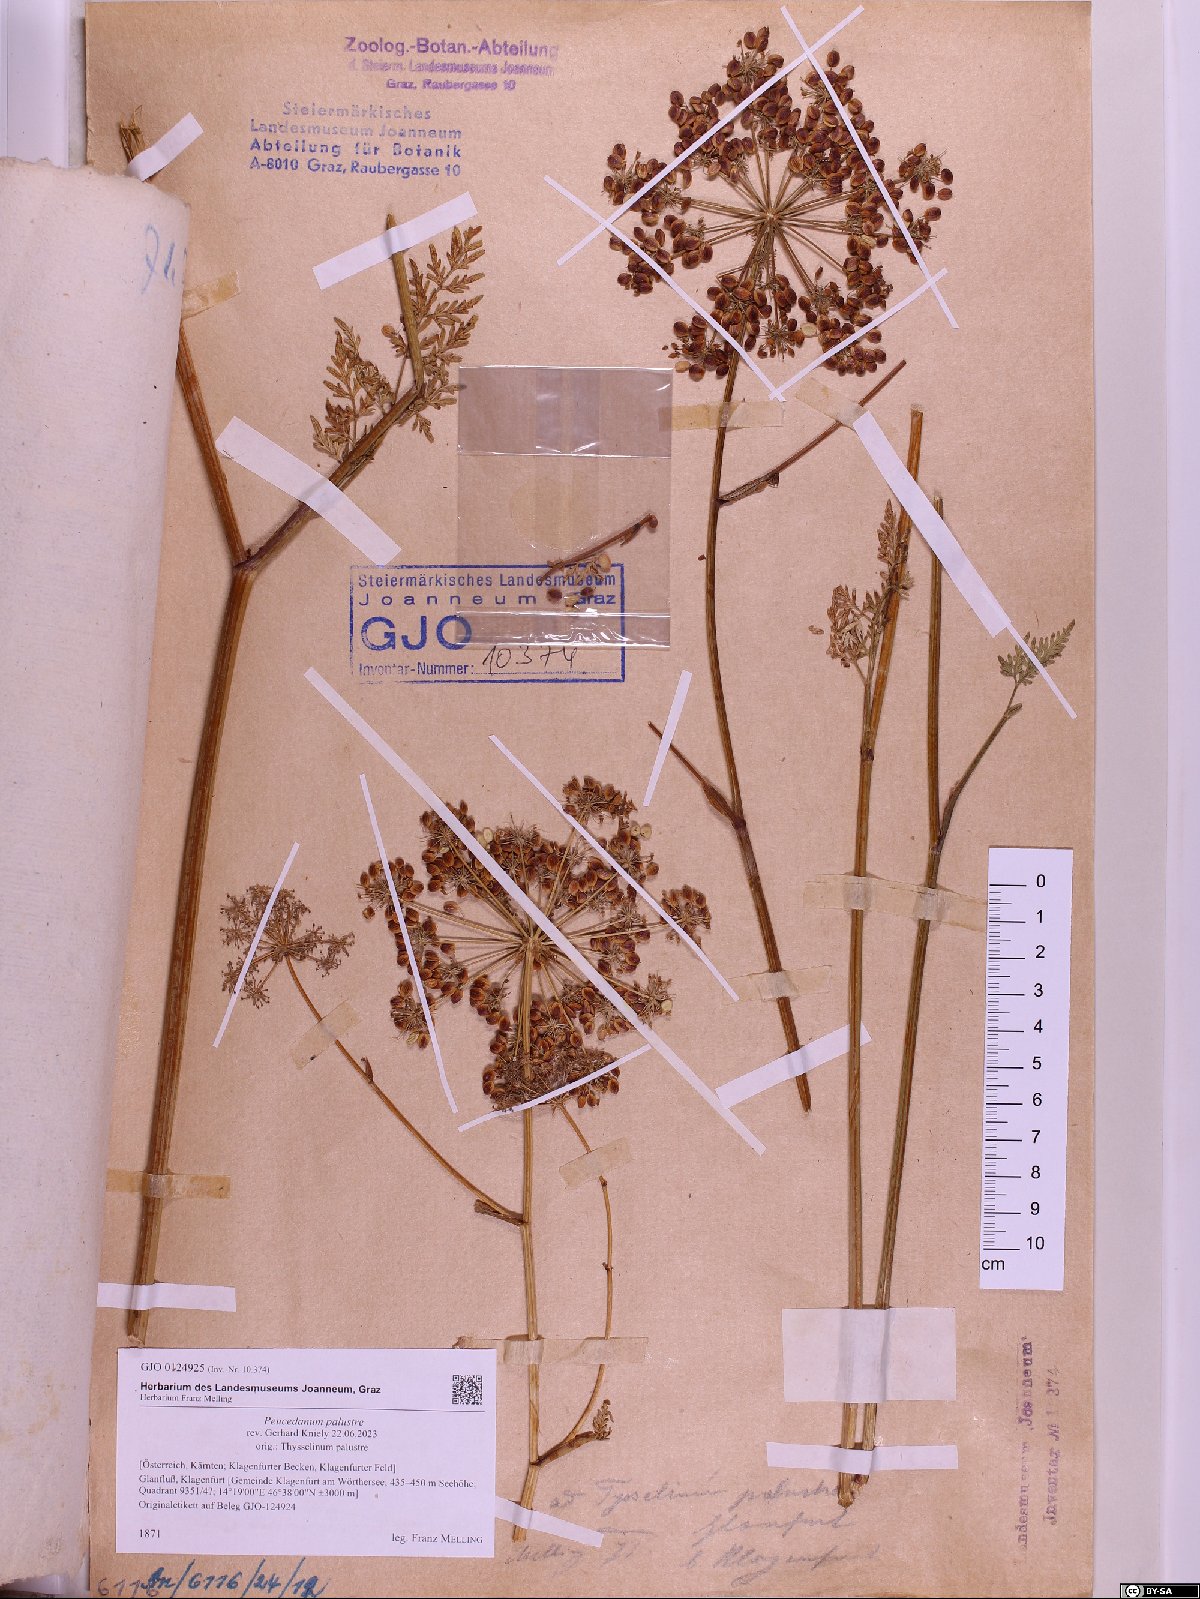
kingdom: Plantae
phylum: Tracheophyta
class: Magnoliopsida
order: Apiales
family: Apiaceae
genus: Thysselinum
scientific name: Thysselinum palustre
